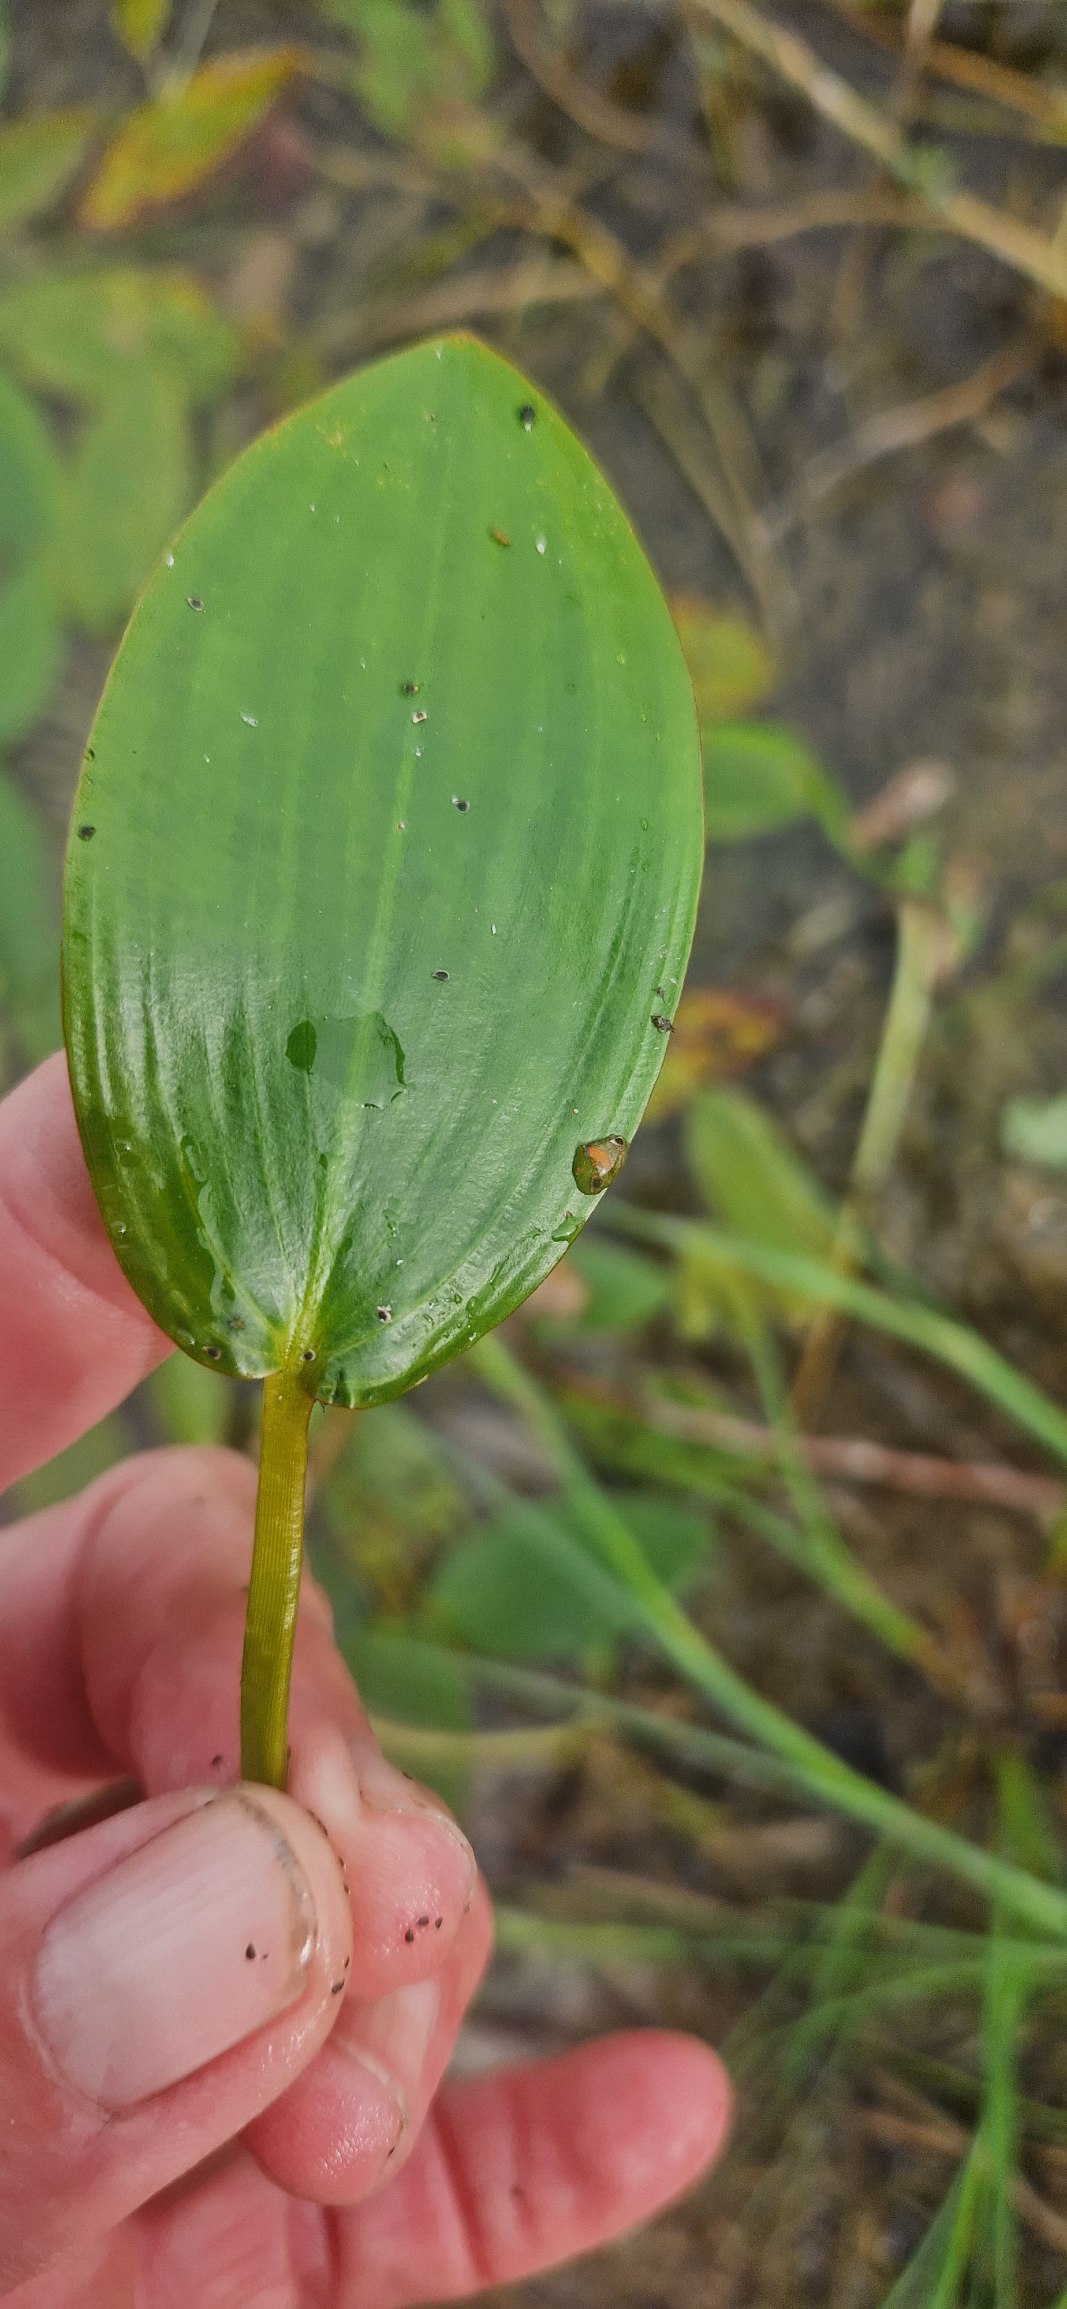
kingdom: Plantae
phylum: Tracheophyta
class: Liliopsida
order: Alismatales
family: Potamogetonaceae
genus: Potamogeton
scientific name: Potamogeton natans
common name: Svømmende vandaks
